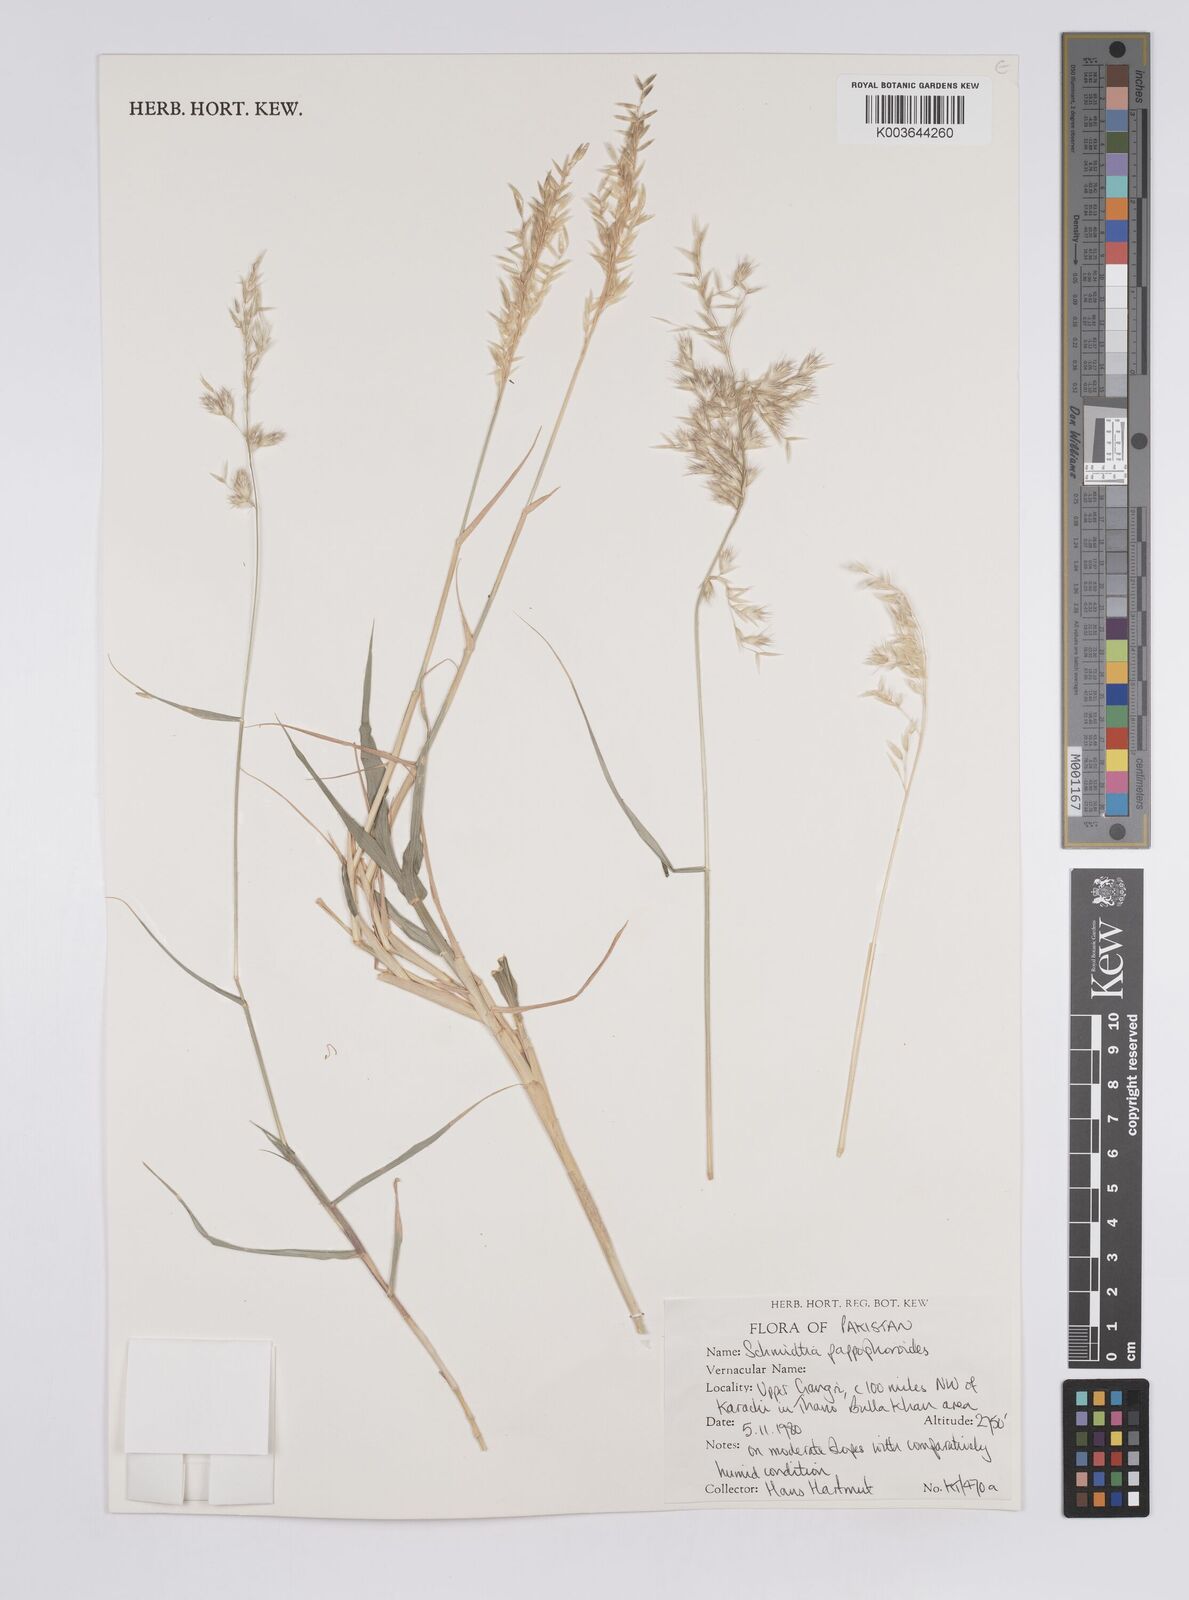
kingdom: Plantae
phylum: Tracheophyta
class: Liliopsida
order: Poales
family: Poaceae
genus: Schmidtia
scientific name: Schmidtia pappophoroides
